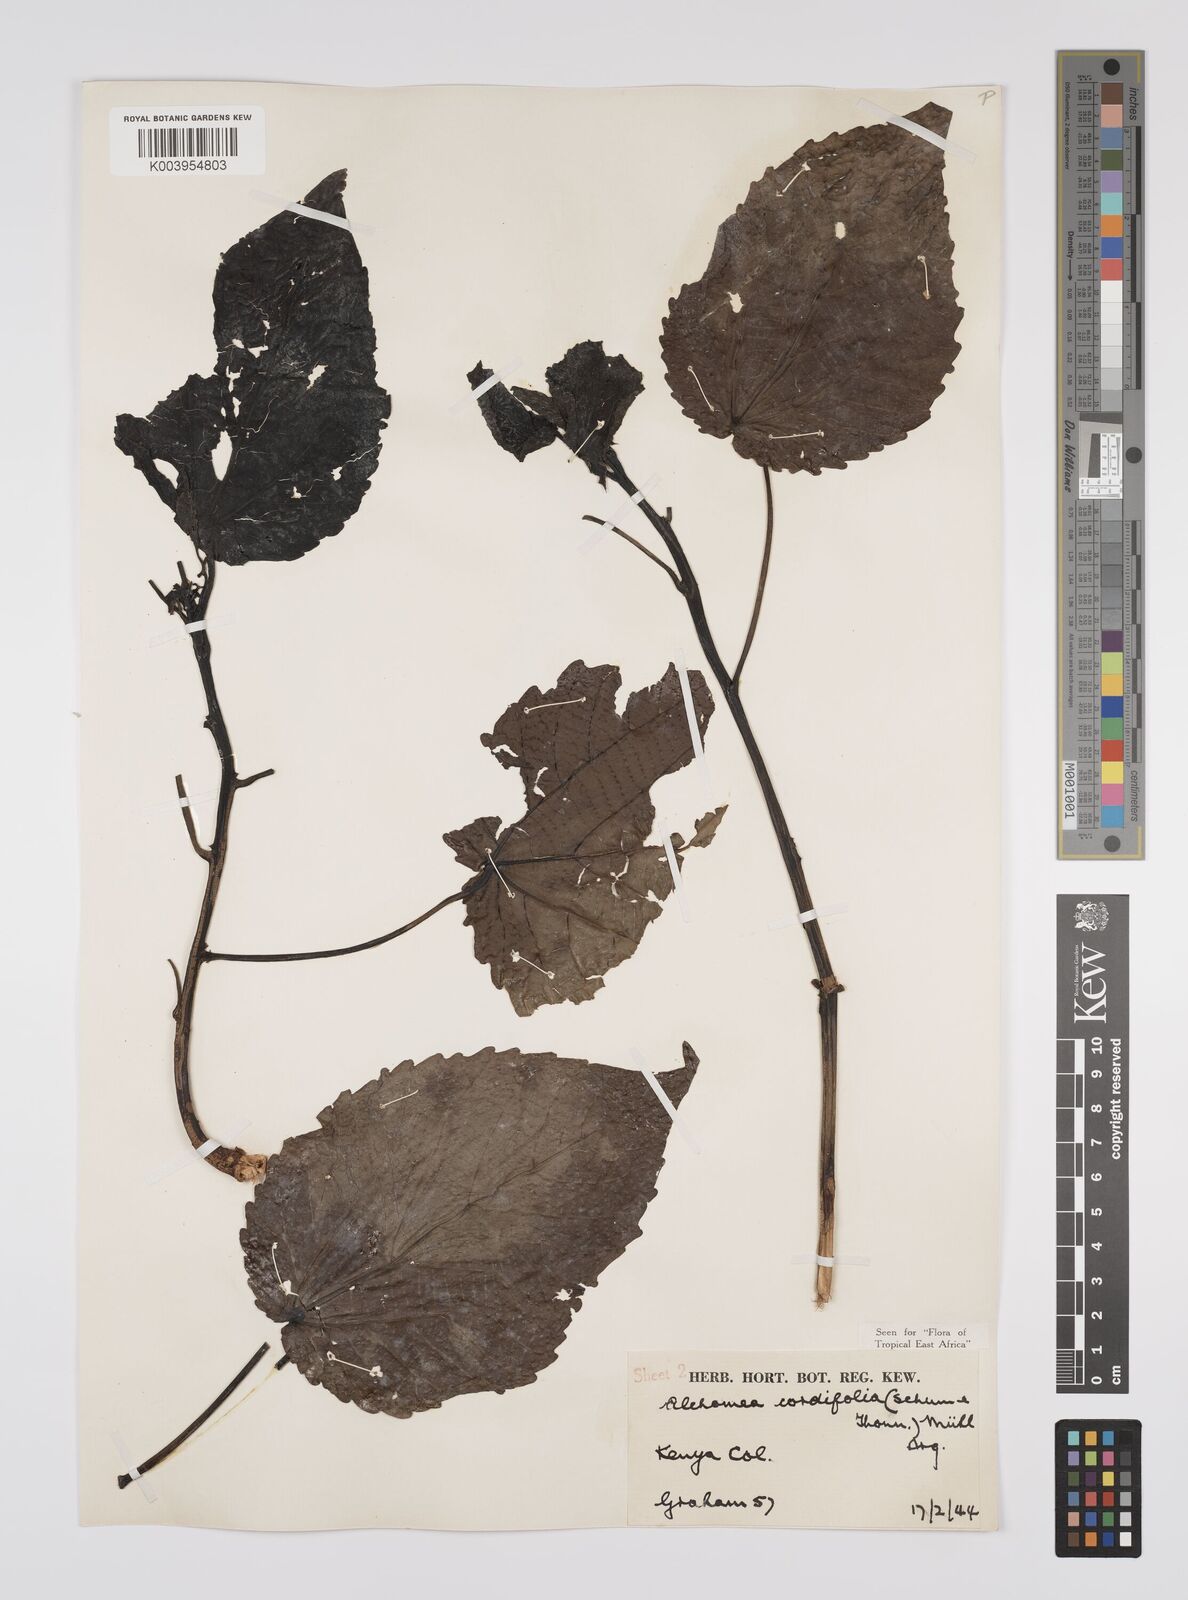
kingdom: Plantae
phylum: Tracheophyta
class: Magnoliopsida
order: Malpighiales
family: Euphorbiaceae
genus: Alchornea
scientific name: Alchornea cordifolia
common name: Christmasbush
